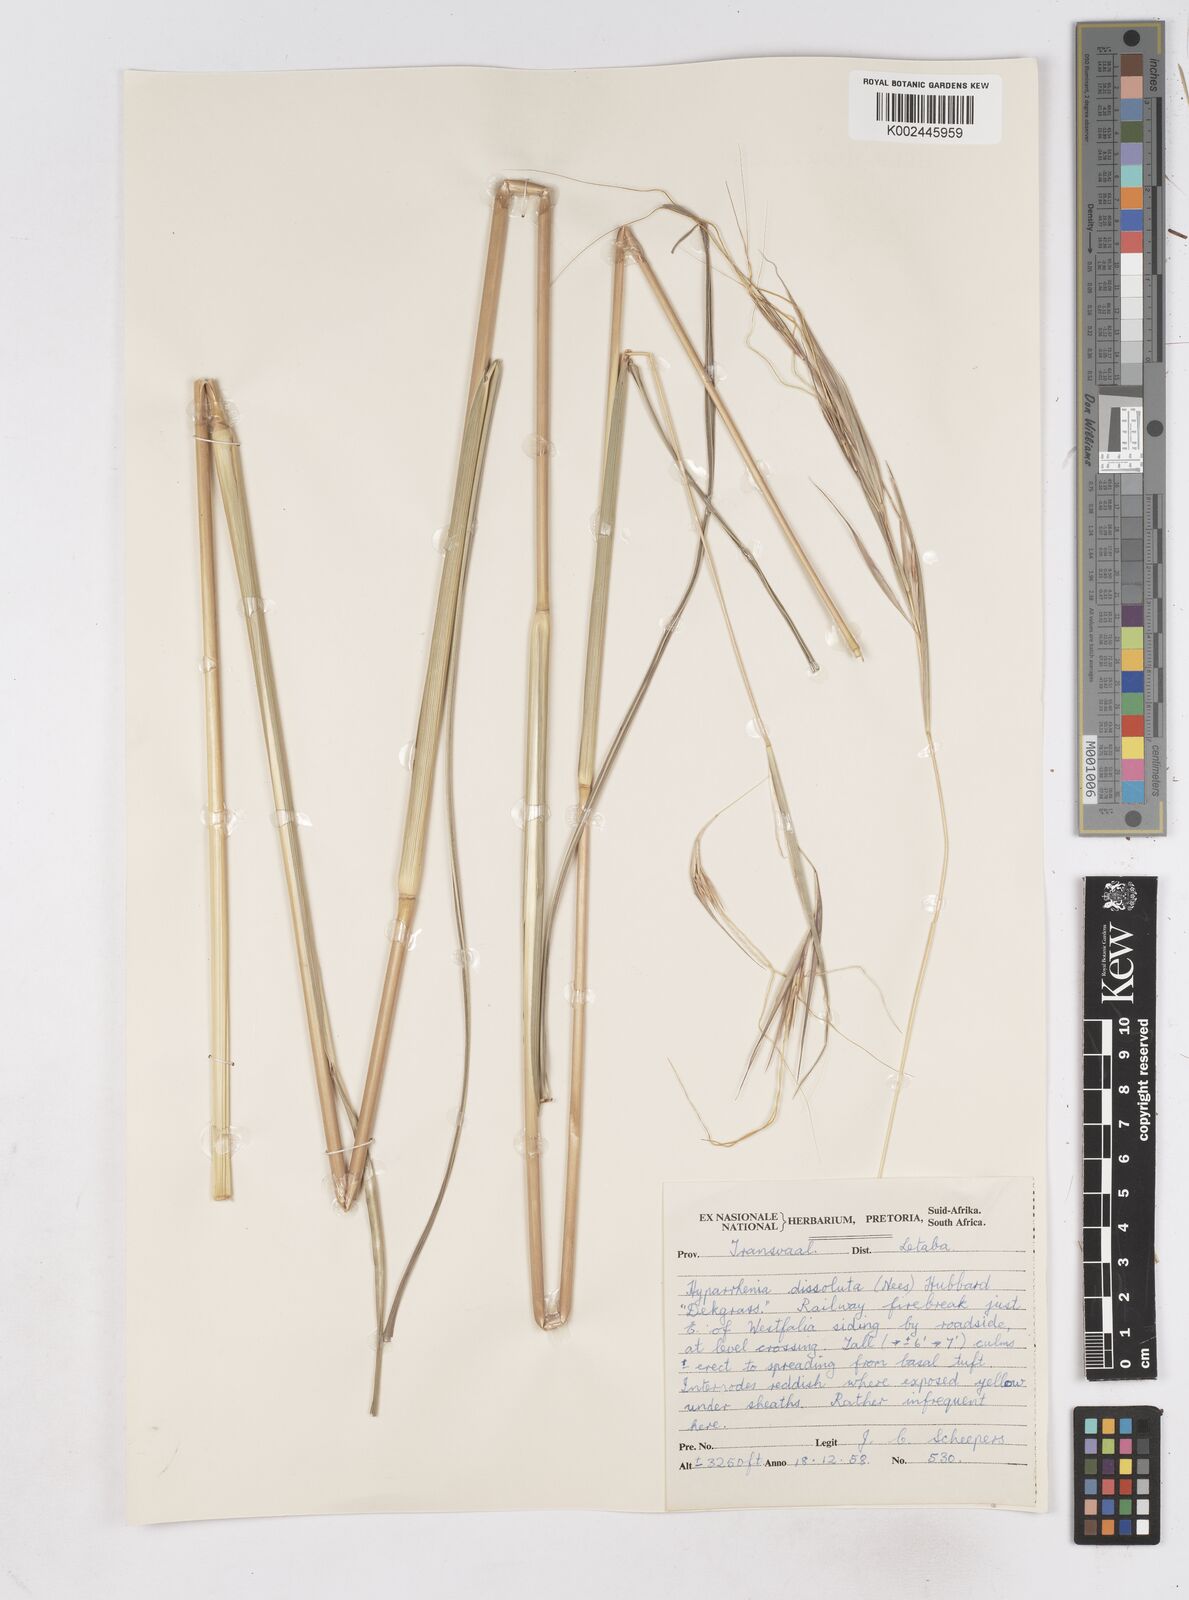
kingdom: Plantae
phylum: Tracheophyta
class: Liliopsida
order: Poales
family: Poaceae
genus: Hyperthelia
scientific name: Hyperthelia dissoluta
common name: Yellow thatching grass
